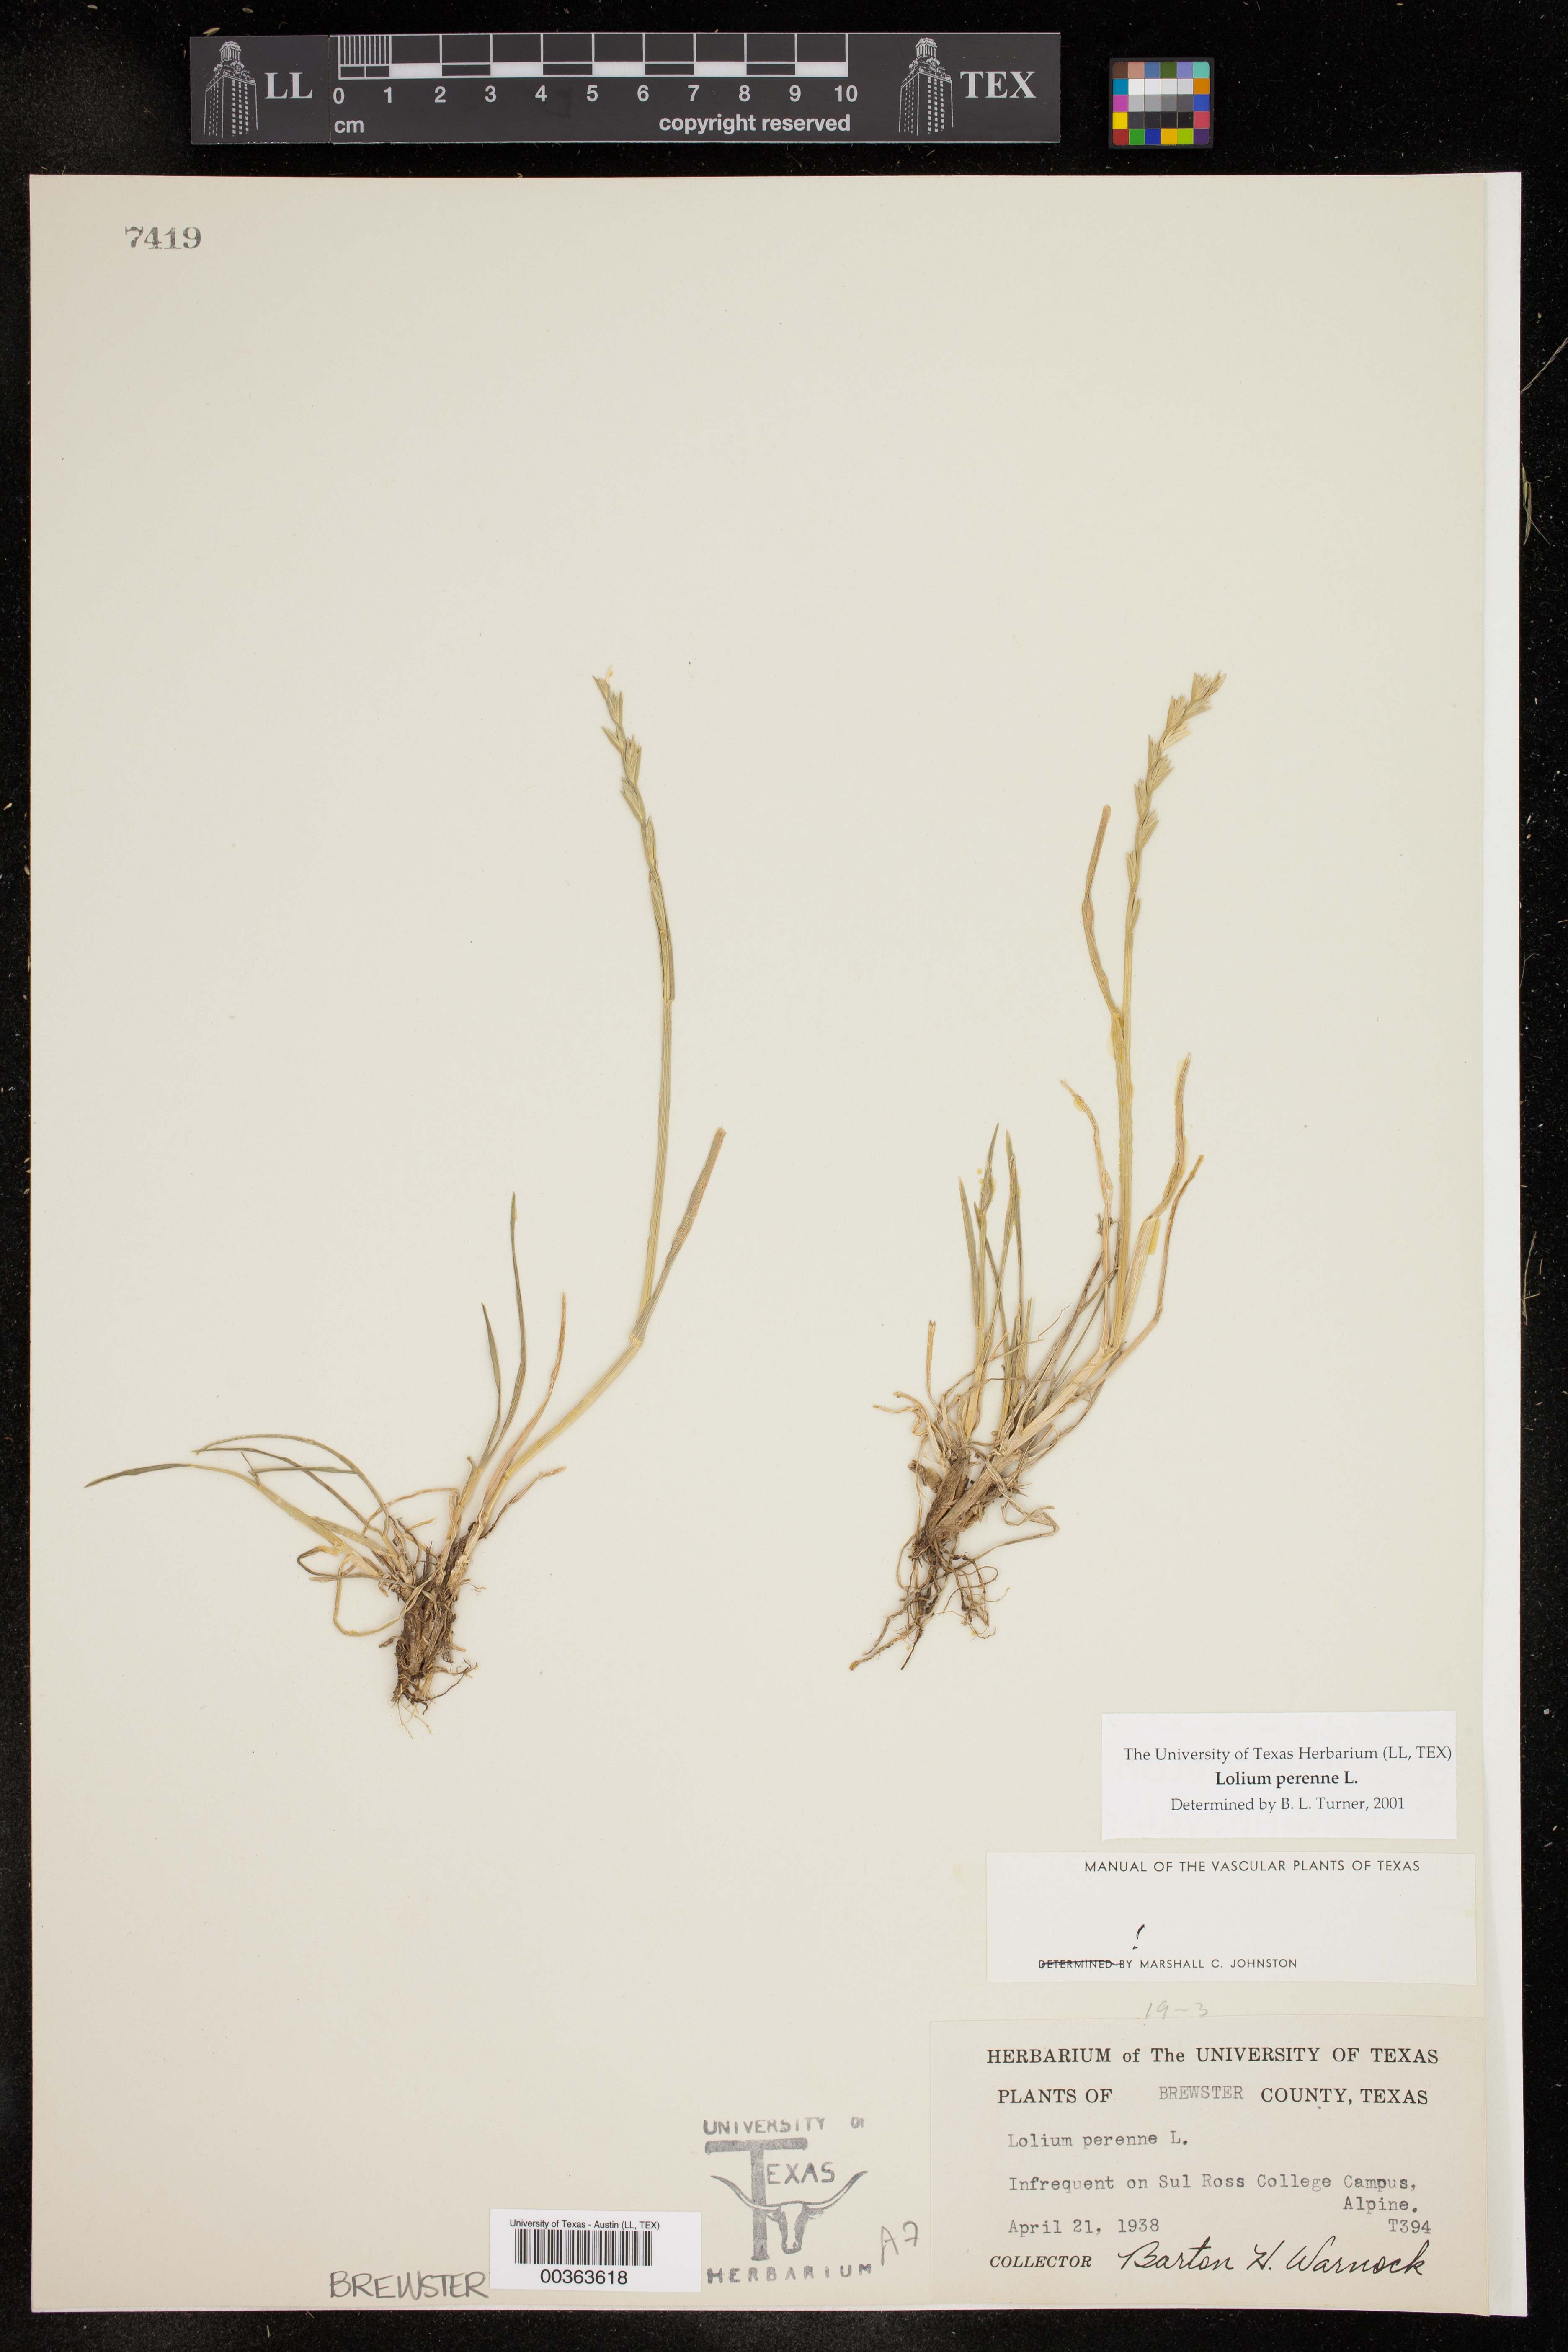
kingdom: Plantae
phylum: Tracheophyta
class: Liliopsida
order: Poales
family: Poaceae
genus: Lolium
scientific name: Lolium perenne
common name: Perennial ryegrass
